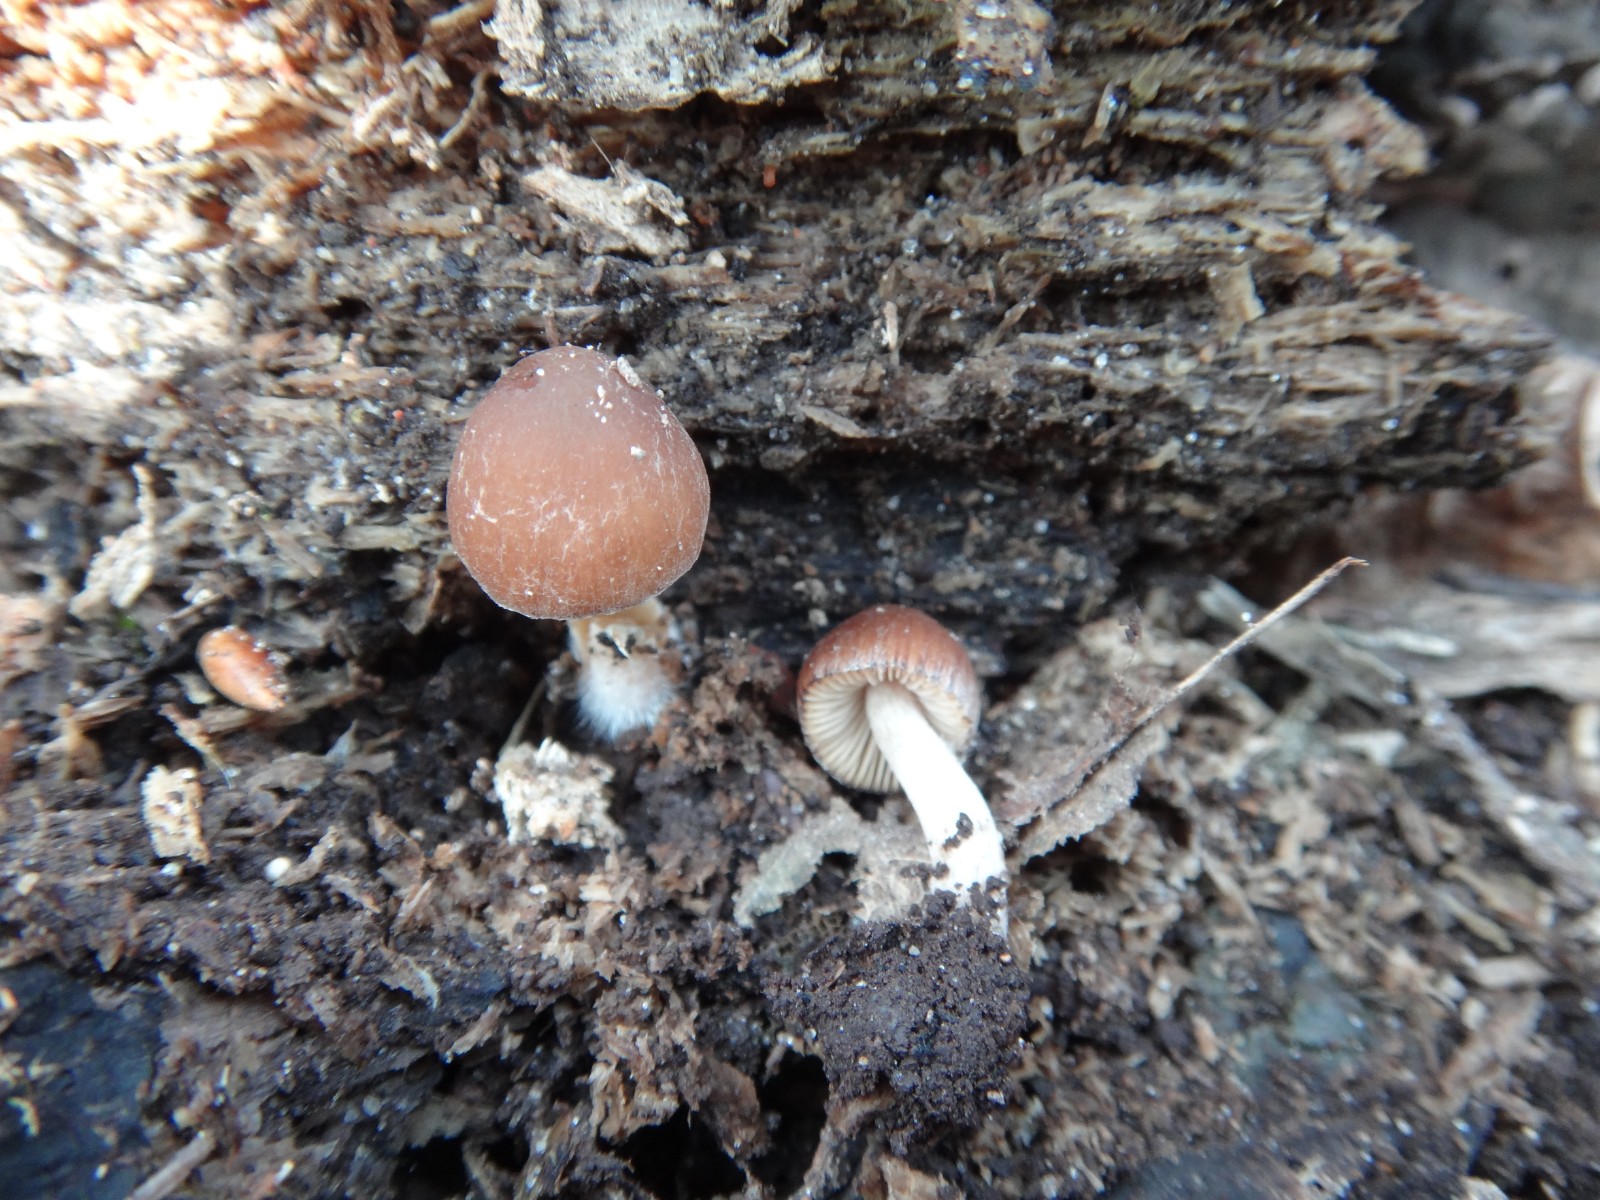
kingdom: Fungi
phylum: Basidiomycota
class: Agaricomycetes
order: Agaricales
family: Psathyrellaceae
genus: Psathyrella
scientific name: Psathyrella obtusata
